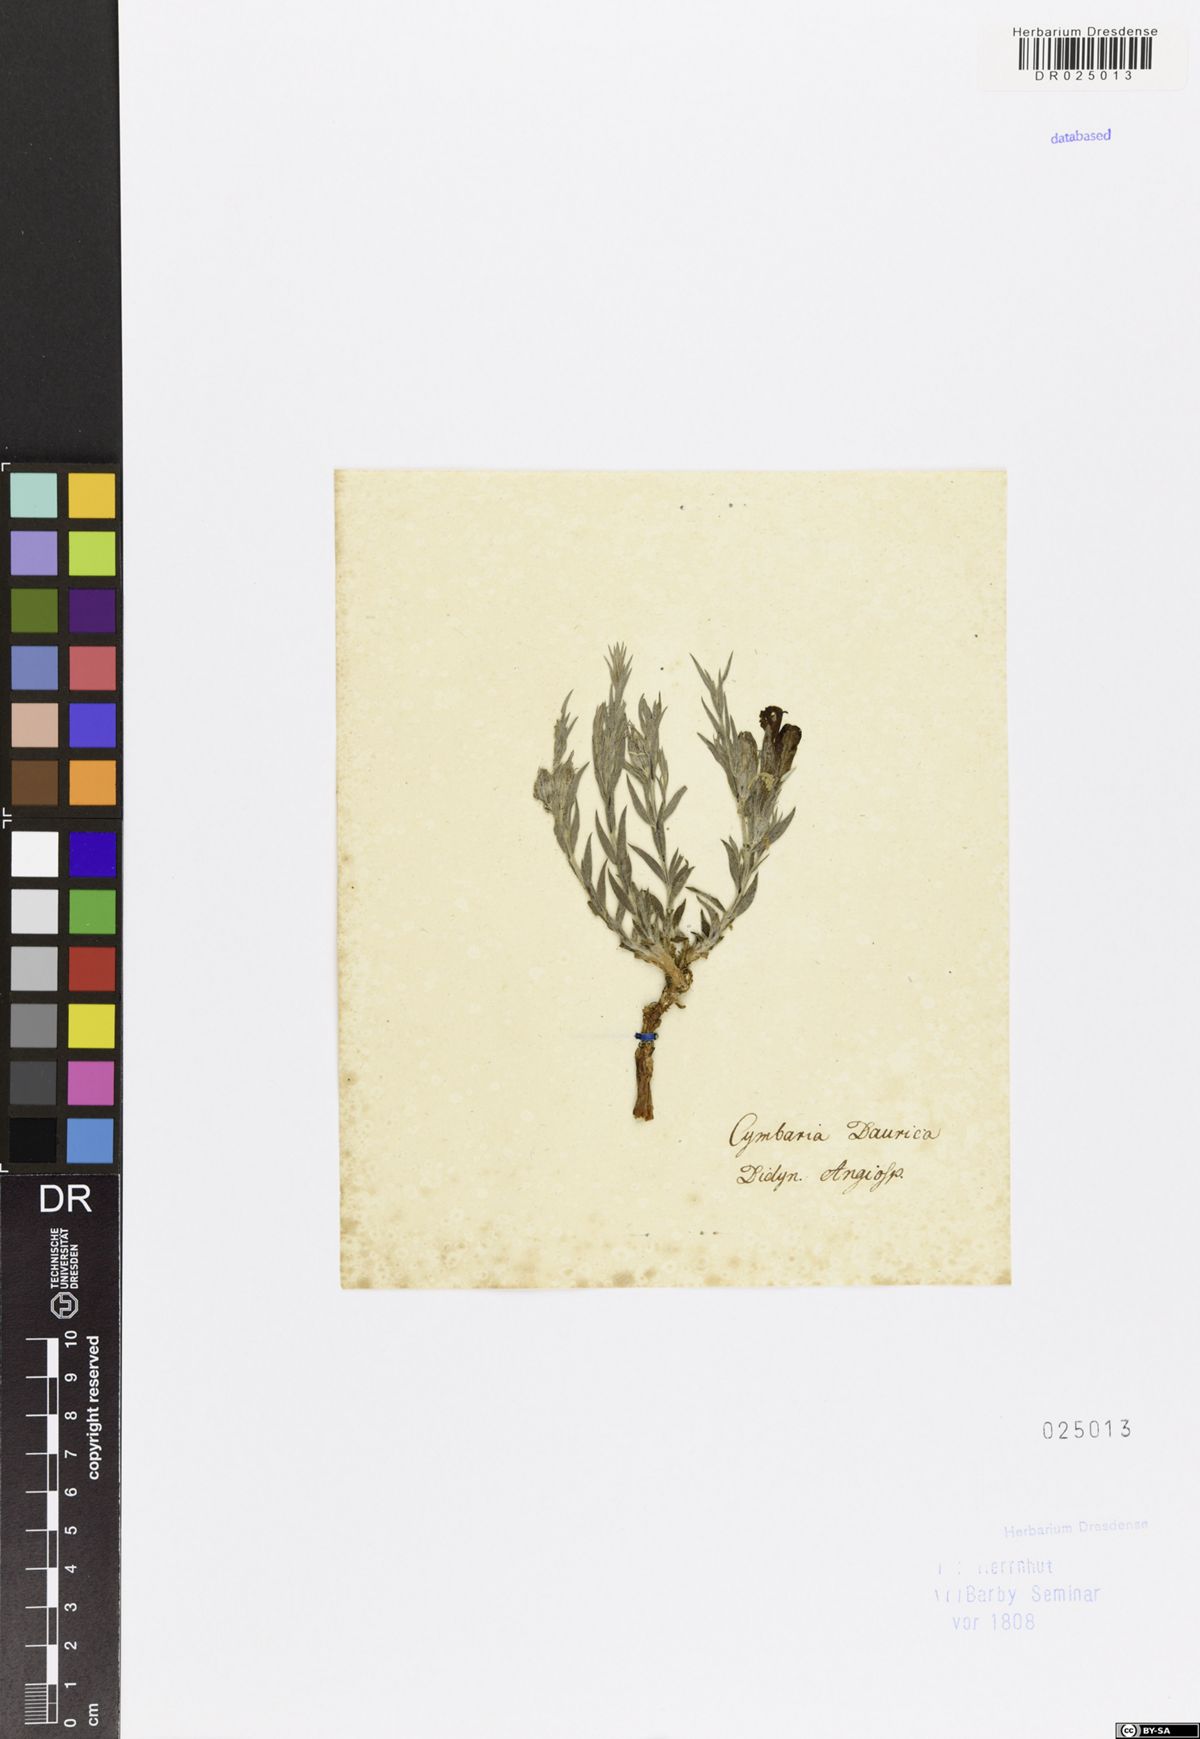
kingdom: Plantae
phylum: Tracheophyta
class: Magnoliopsida
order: Lamiales
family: Orobanchaceae
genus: Cymbaria
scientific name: Cymbaria daurica
